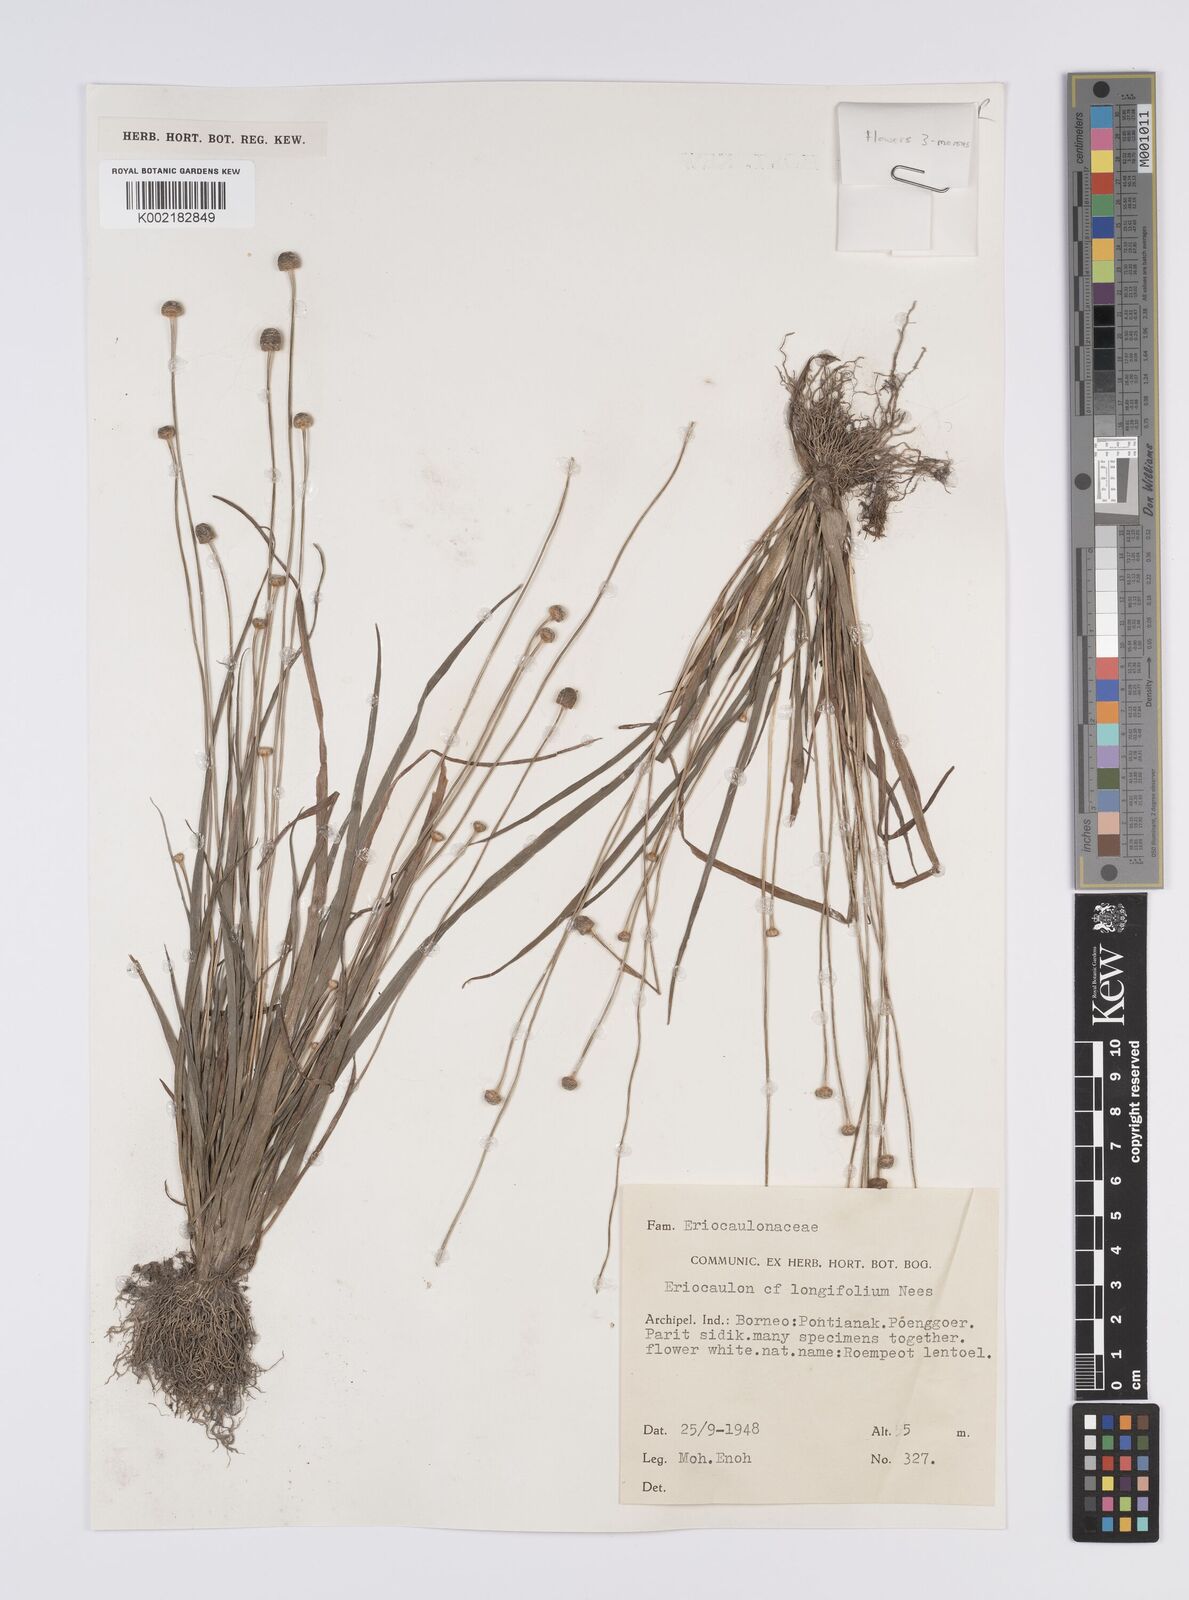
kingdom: Plantae
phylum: Tracheophyta
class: Liliopsida
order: Poales
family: Eriocaulaceae
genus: Eriocaulon
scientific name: Eriocaulon willdenovianum
